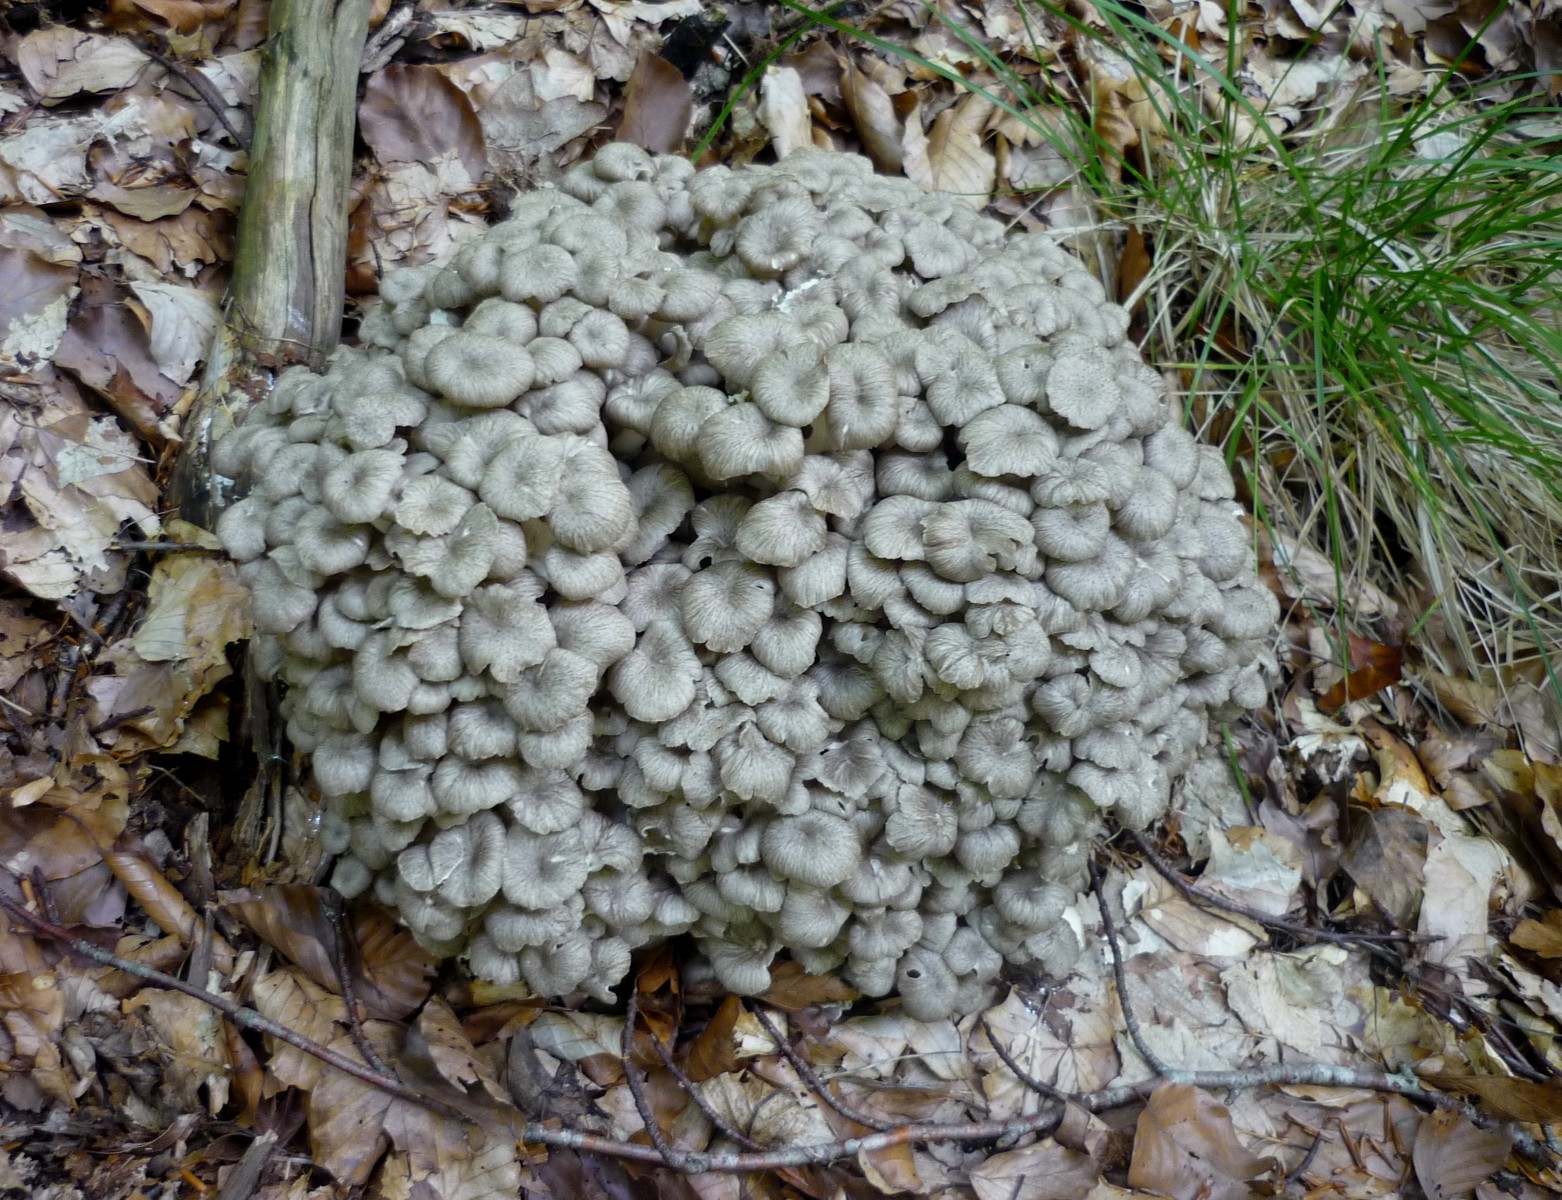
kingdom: Fungi
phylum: Basidiomycota
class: Agaricomycetes
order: Polyporales
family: Polyporaceae
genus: Polyporus
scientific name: Polyporus umbellatus
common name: skærmformet stilkporesvamp
